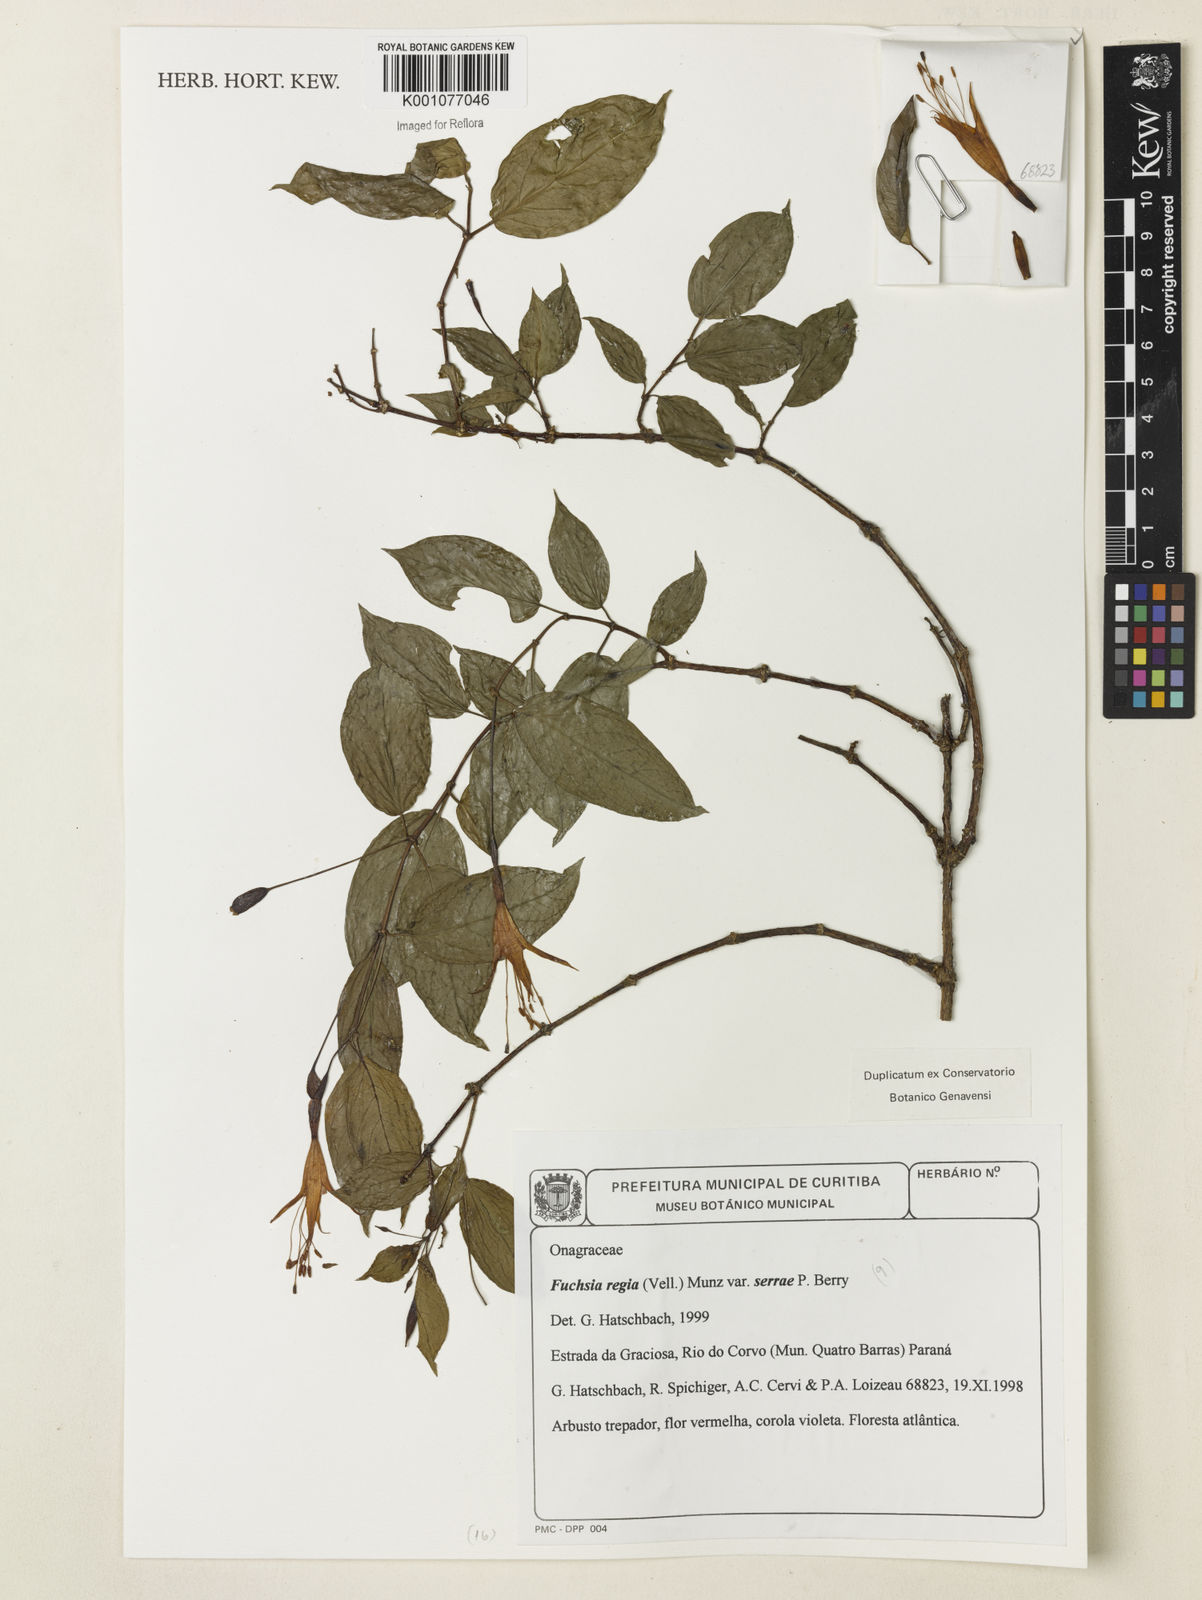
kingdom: Plantae
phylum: Tracheophyta
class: Magnoliopsida
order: Myrtales
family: Onagraceae
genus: Fuchsia
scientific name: Fuchsia regia
